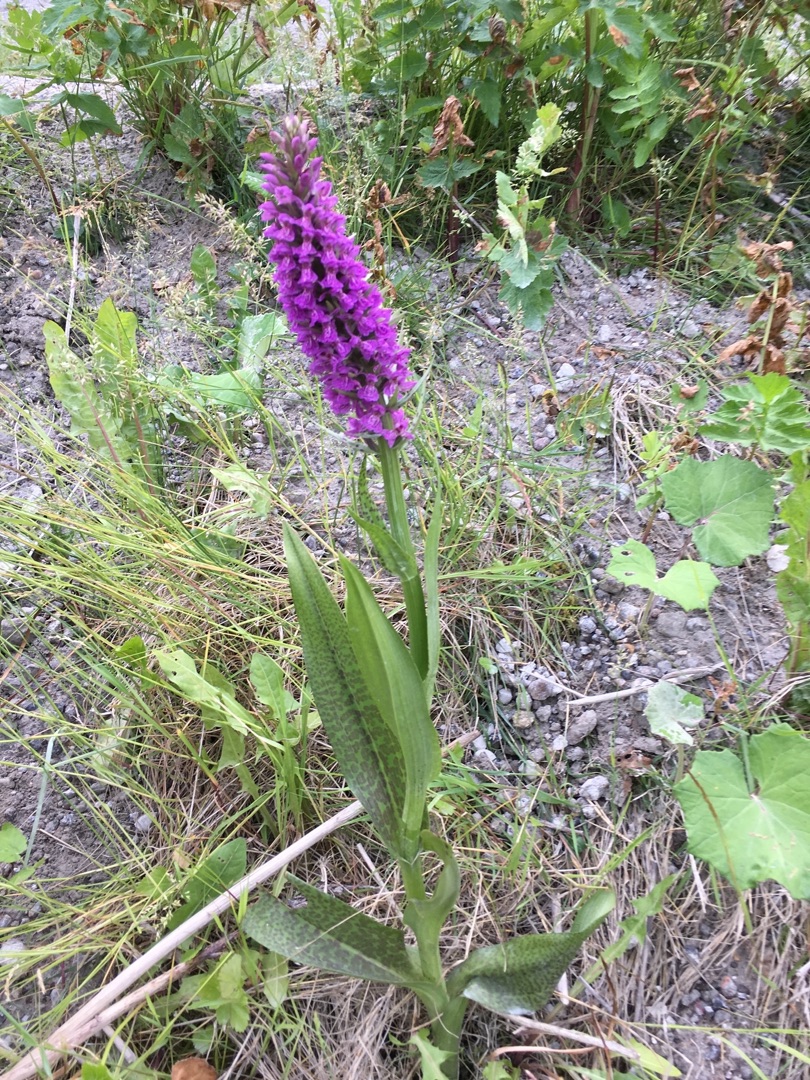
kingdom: Plantae
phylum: Tracheophyta
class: Liliopsida
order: Asparagales
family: Orchidaceae
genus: Dactylorhiza
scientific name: Dactylorhiza majalis
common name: Ringplettet gøgeurt
